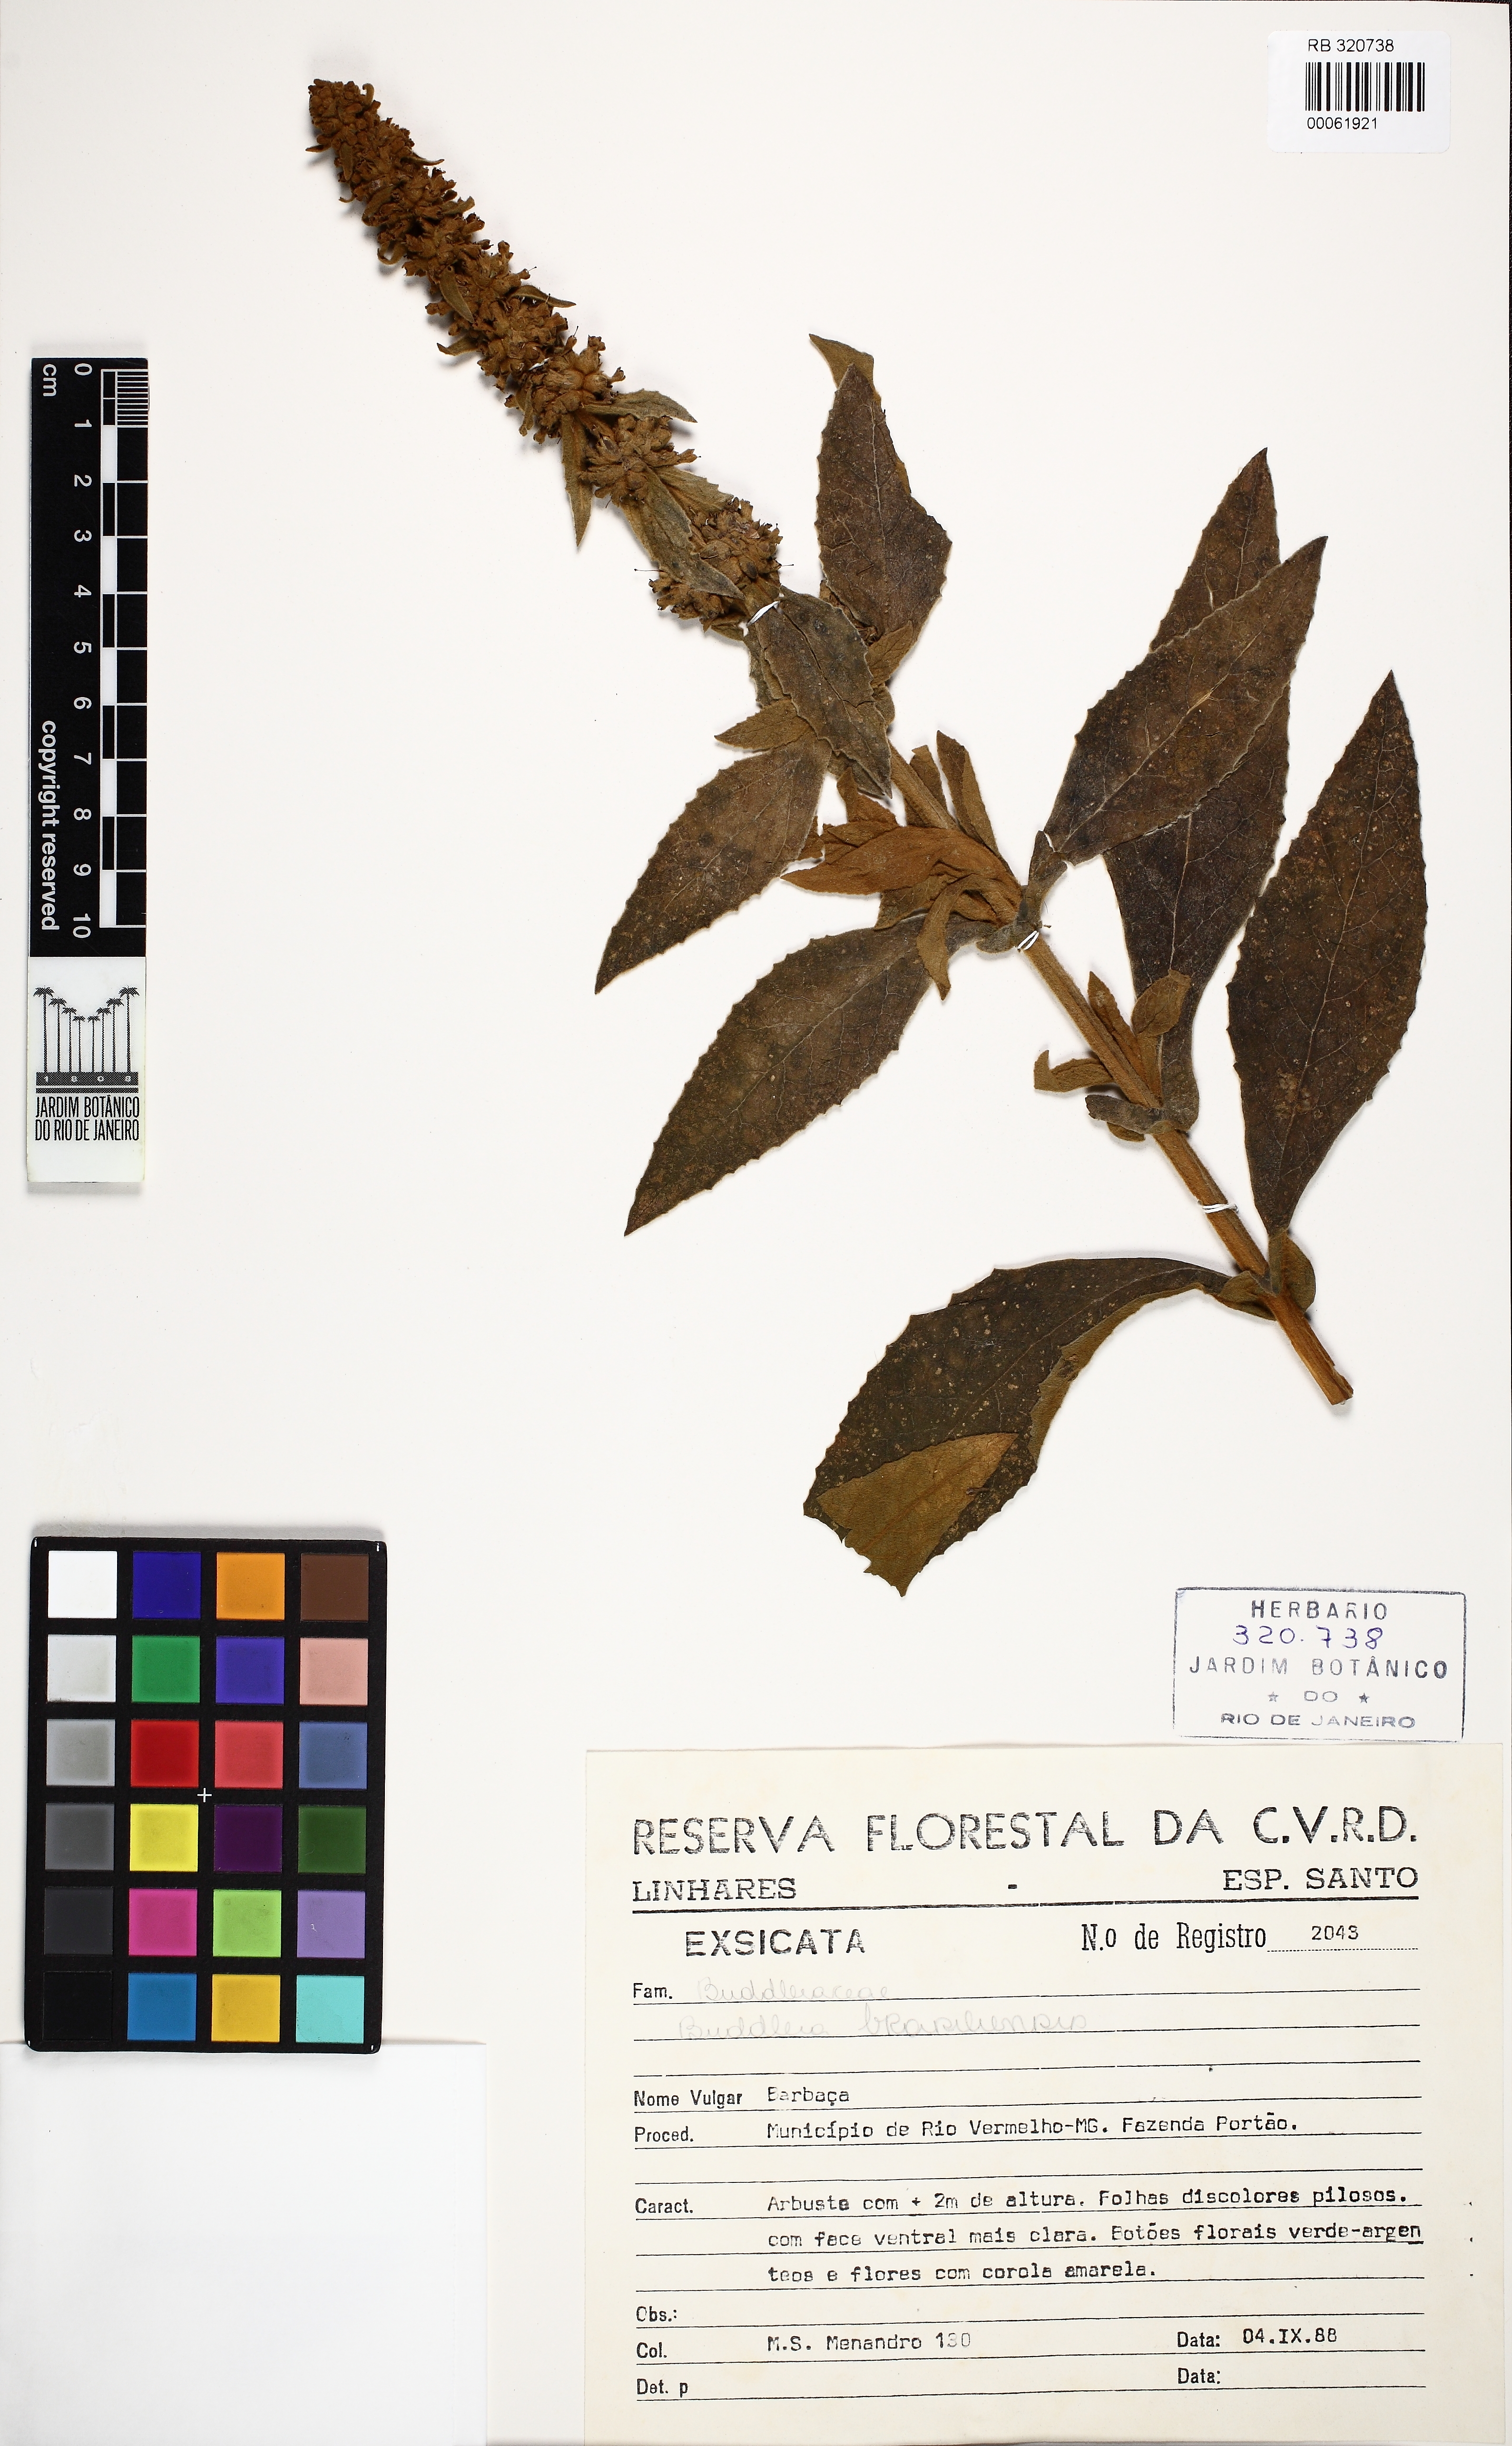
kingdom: Plantae
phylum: Tracheophyta
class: Magnoliopsida
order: Lamiales
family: Scrophulariaceae
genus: Buddleja
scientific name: Buddleja stachyoides
